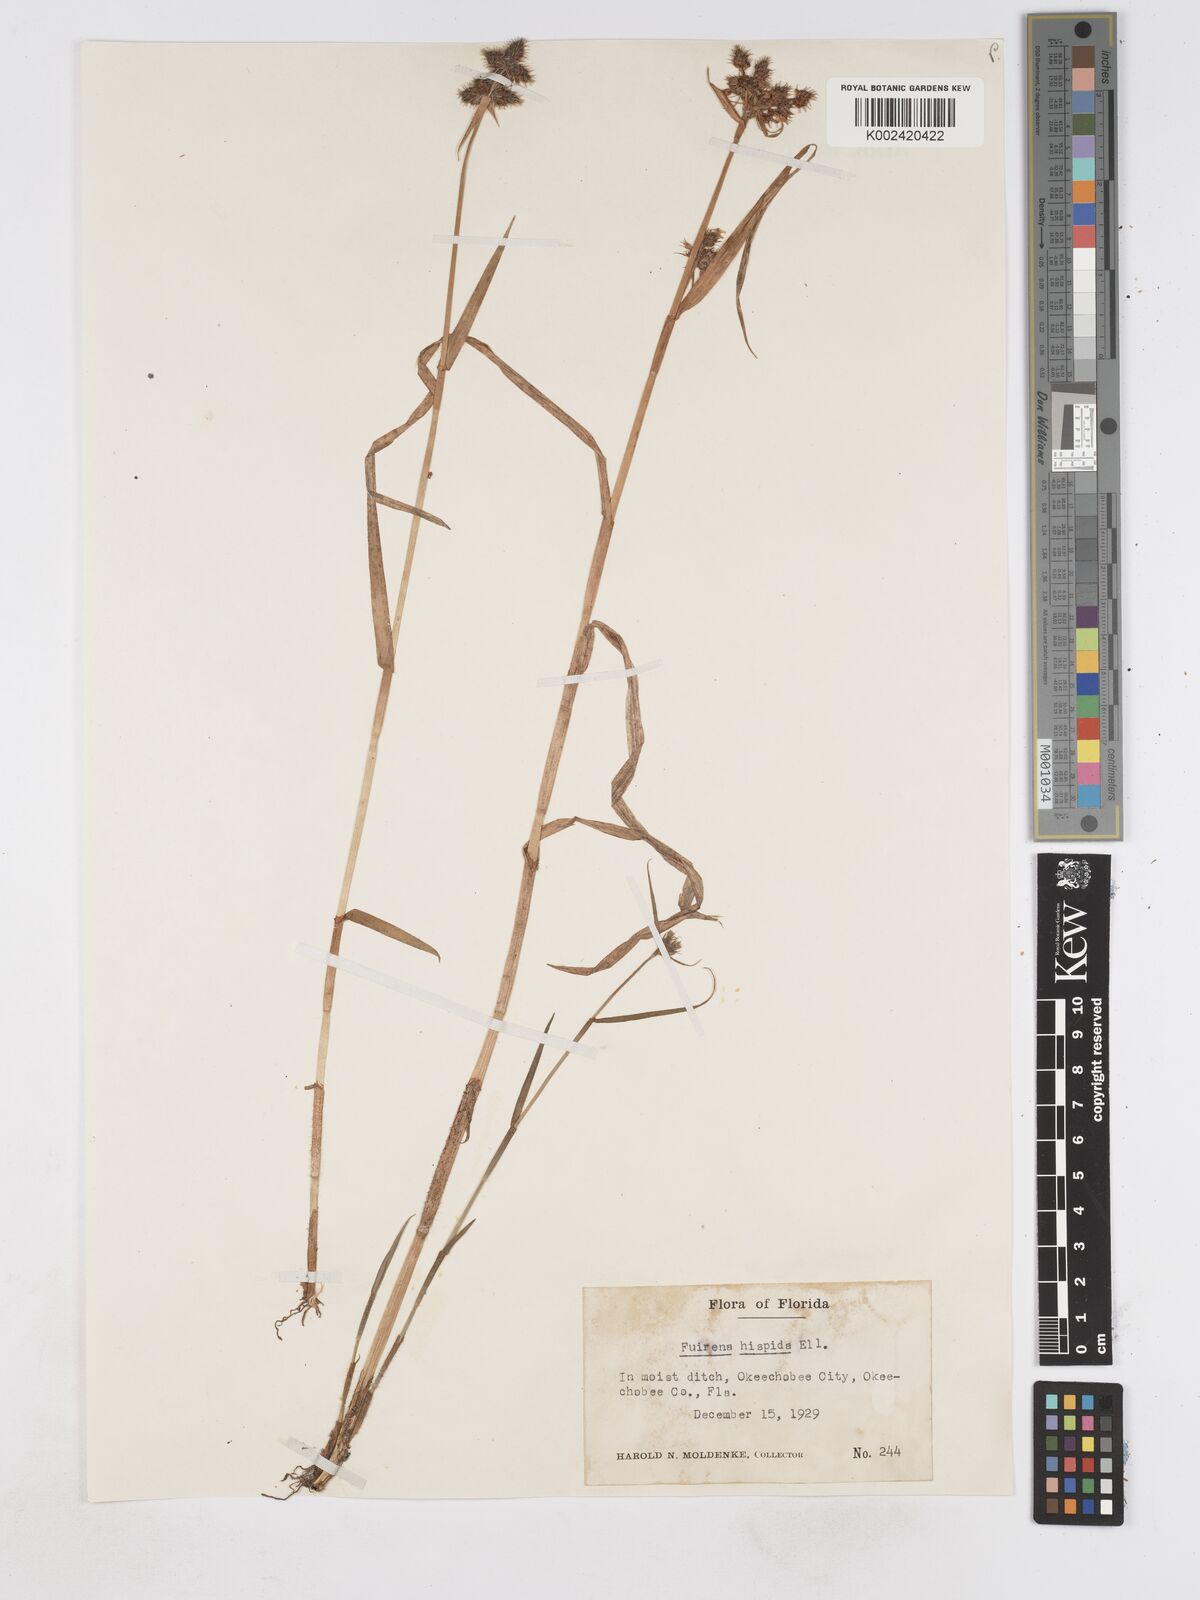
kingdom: Plantae
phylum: Tracheophyta
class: Liliopsida
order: Poales
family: Cyperaceae
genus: Fuirena
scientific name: Fuirena squarrosa
